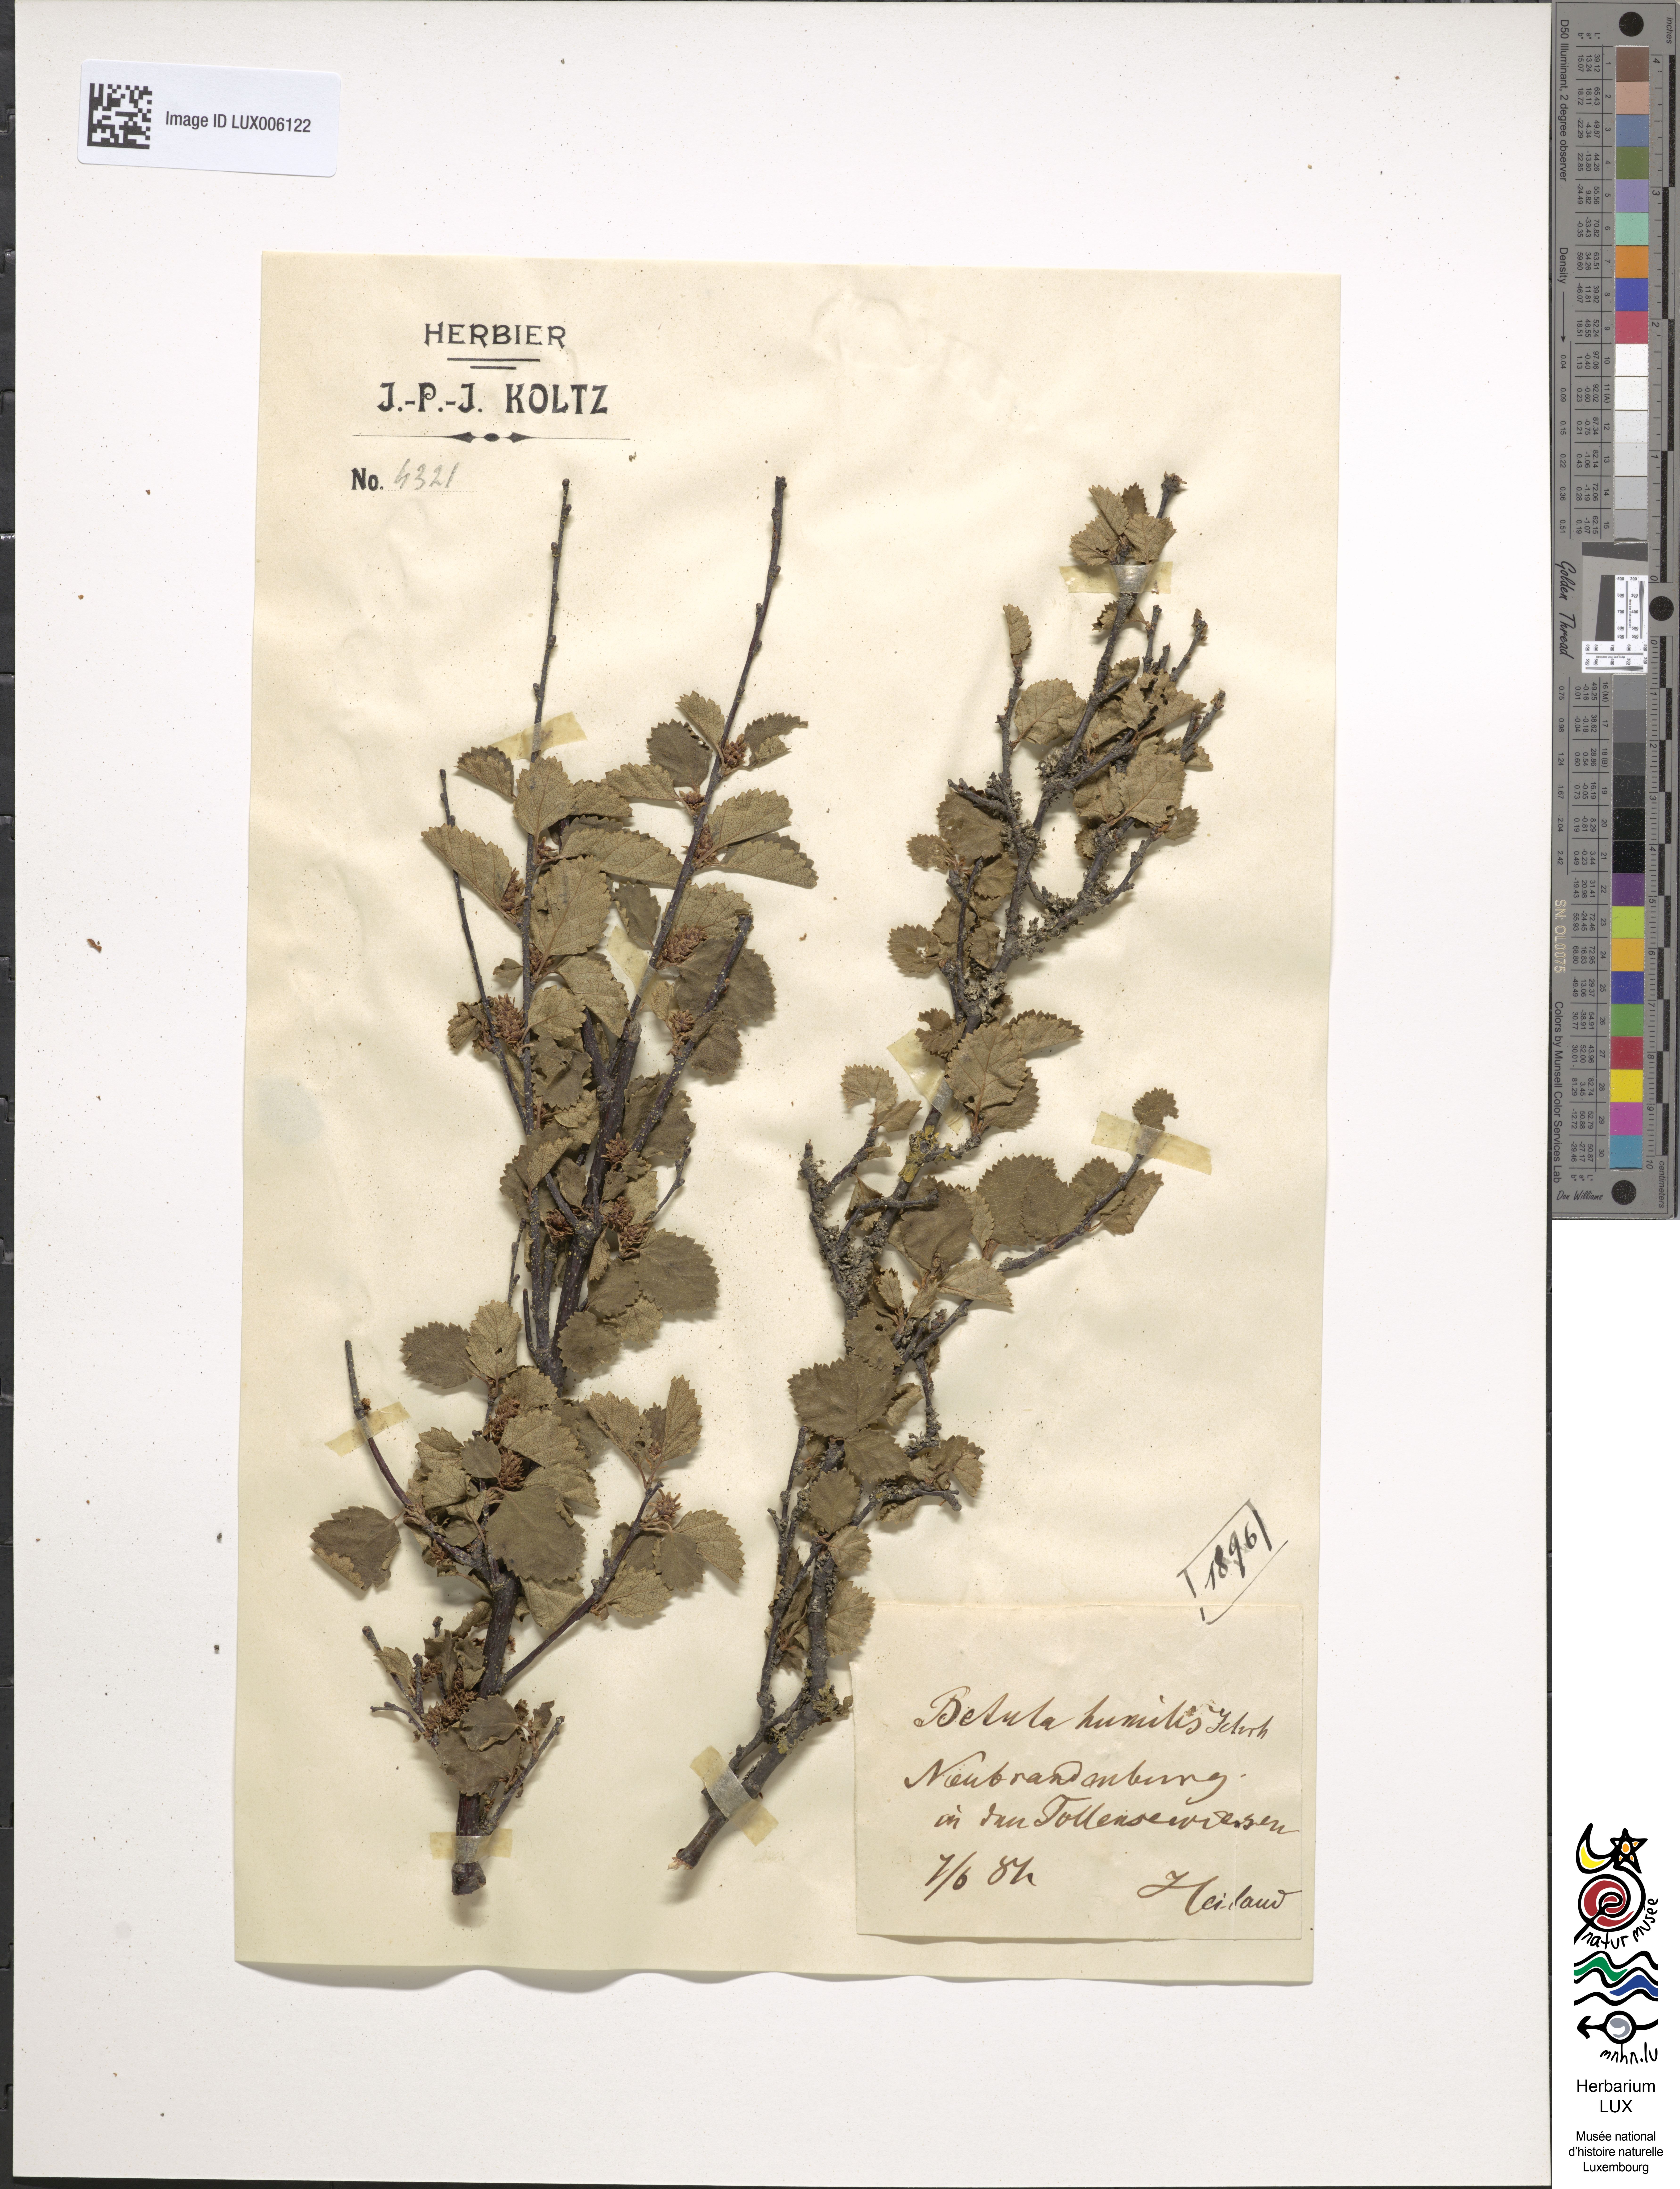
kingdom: Plantae
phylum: Tracheophyta
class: Magnoliopsida
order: Fagales
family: Betulaceae
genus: Betula
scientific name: Betula humilis
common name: Shrubby birch
